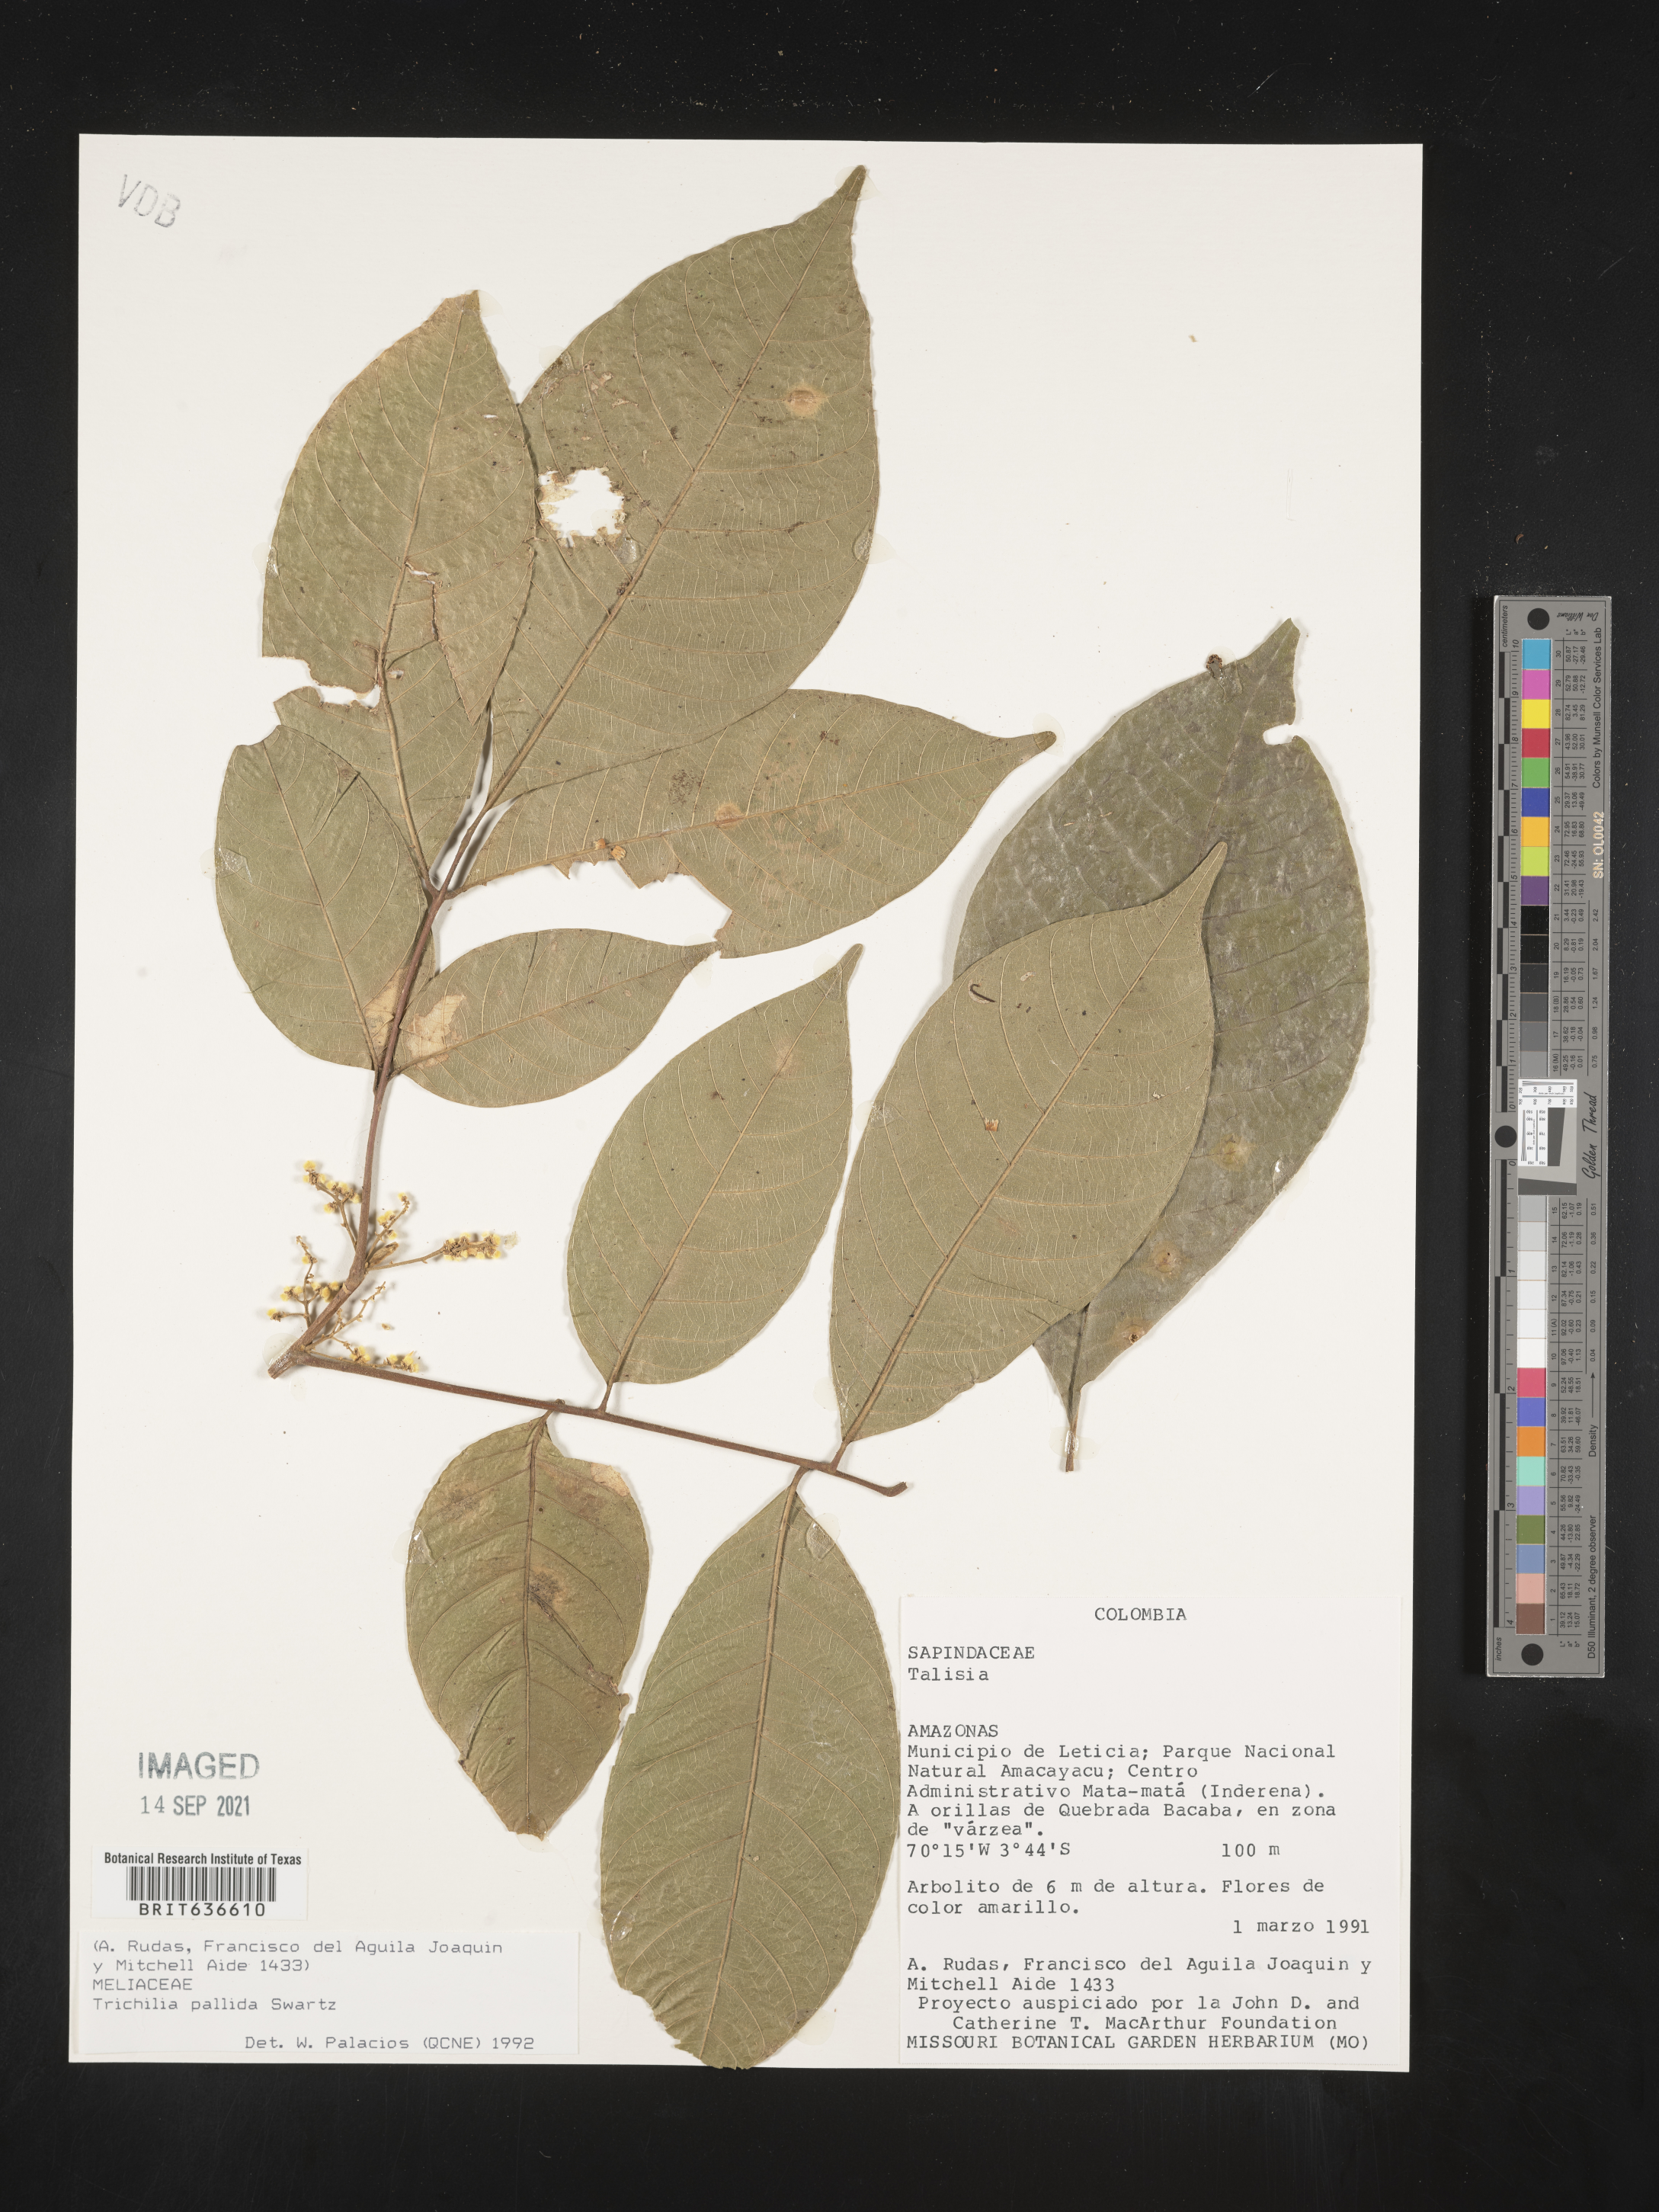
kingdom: Plantae
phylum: Tracheophyta
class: Magnoliopsida
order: Sapindales
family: Meliaceae
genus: Trichilia
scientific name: Trichilia
